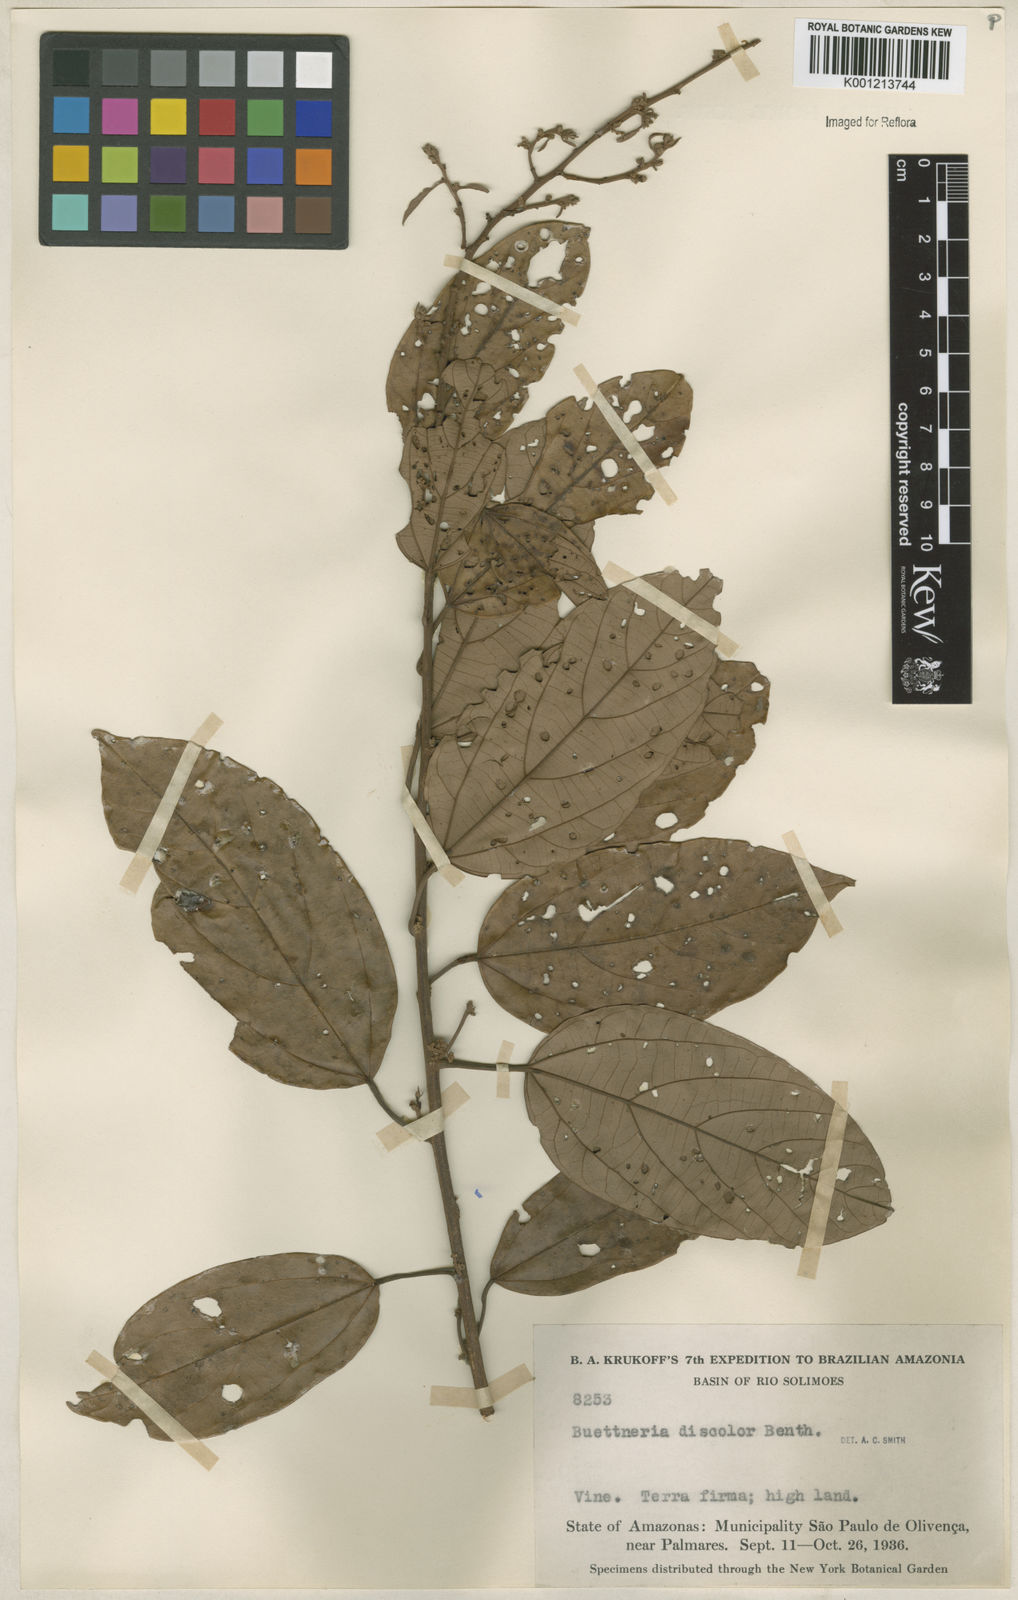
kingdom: Plantae
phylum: Tracheophyta
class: Magnoliopsida
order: Malvales
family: Malvaceae
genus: Byttneria
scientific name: Byttneria fulva
